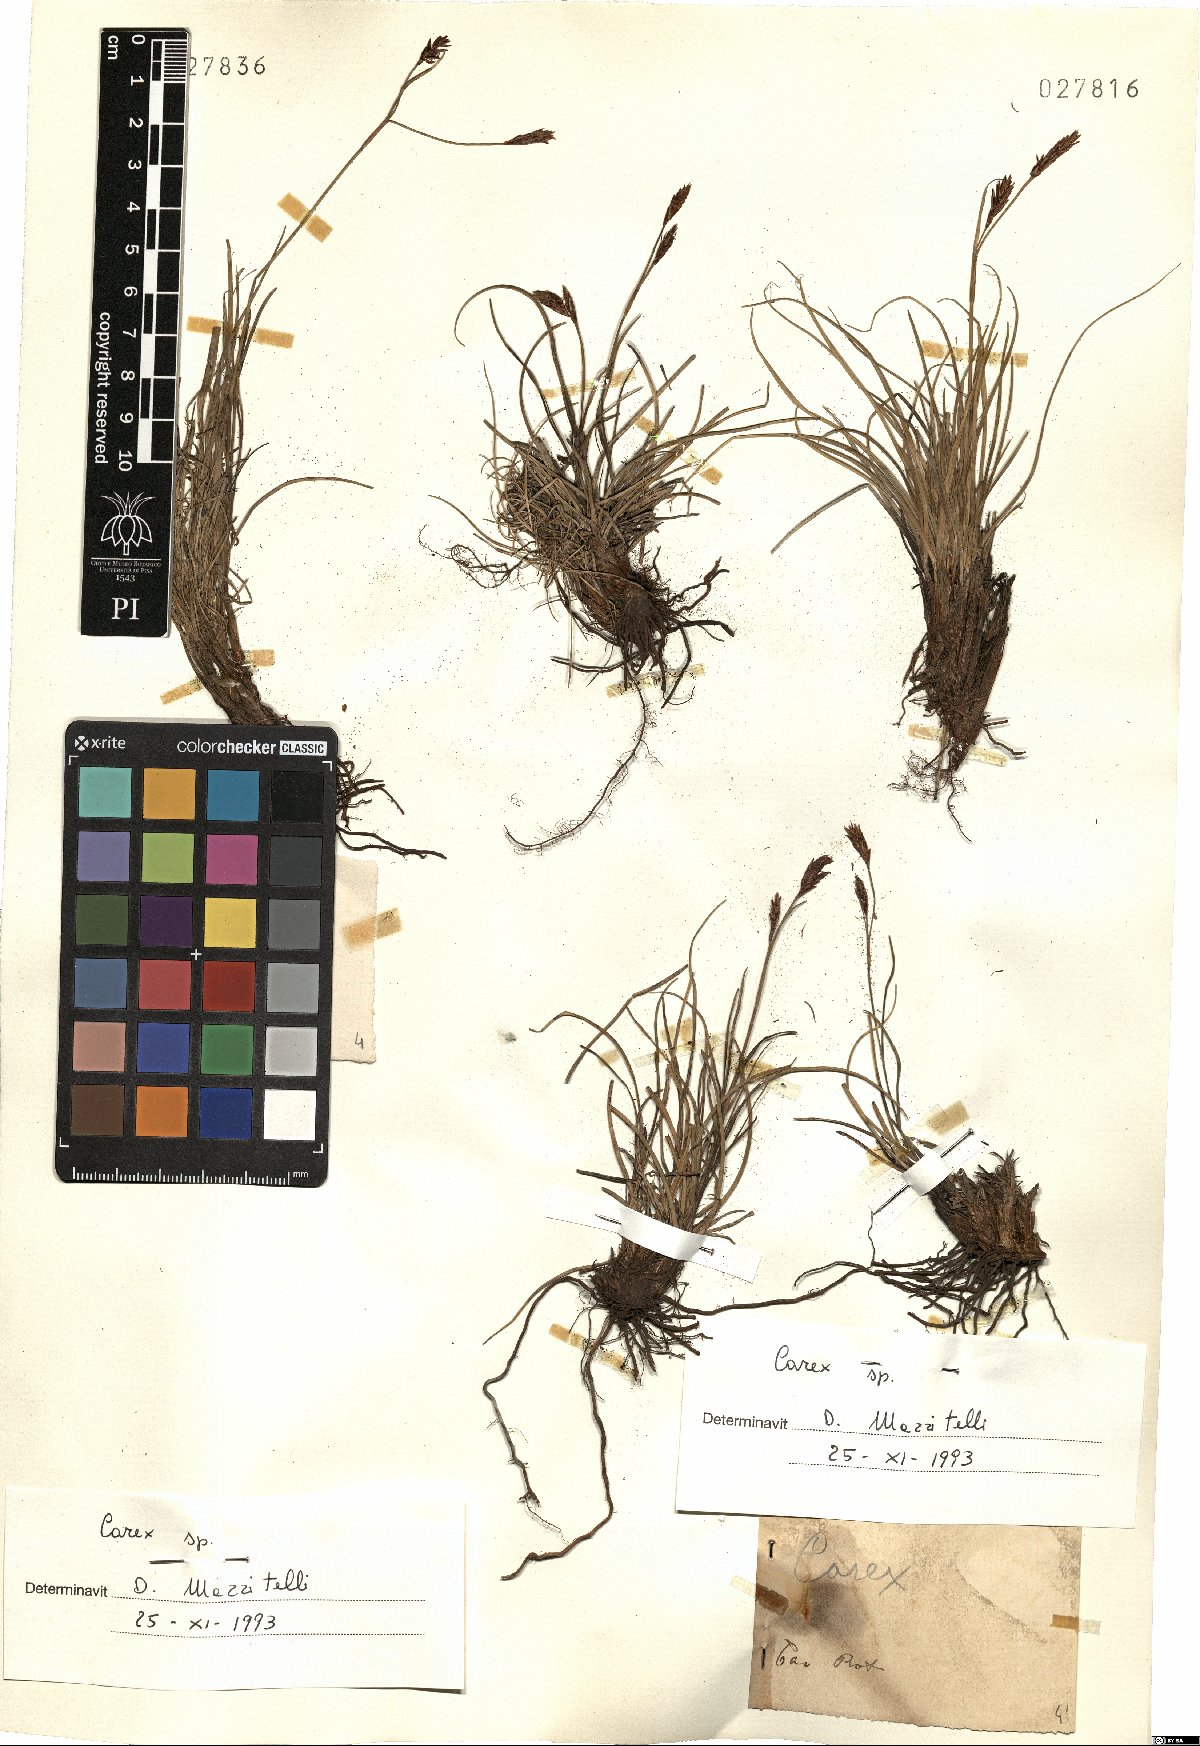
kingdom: Plantae
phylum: Tracheophyta
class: Liliopsida
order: Poales
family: Cyperaceae
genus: Carex
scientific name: Carex
